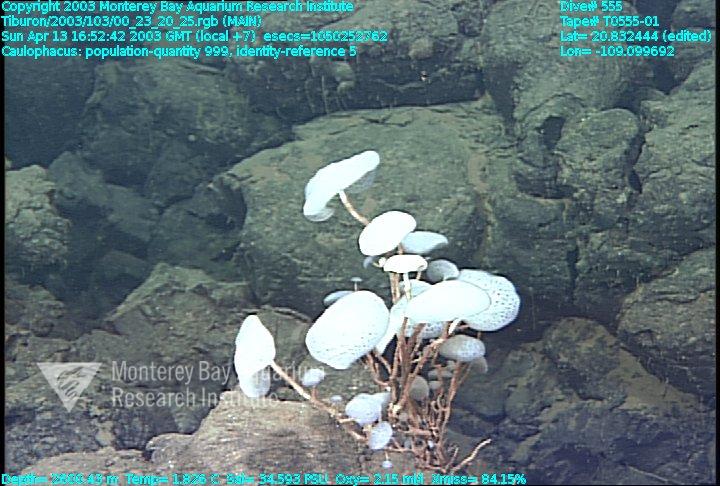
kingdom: Animalia
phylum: Porifera
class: Hexactinellida
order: Lyssacinosida
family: Rossellidae
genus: Caulophacus
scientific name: Caulophacus
